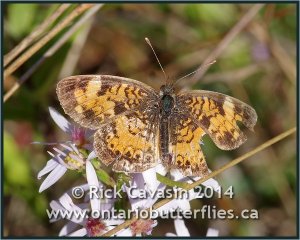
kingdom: Animalia
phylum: Arthropoda
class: Insecta
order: Lepidoptera
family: Nymphalidae
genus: Phyciodes
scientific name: Phyciodes
